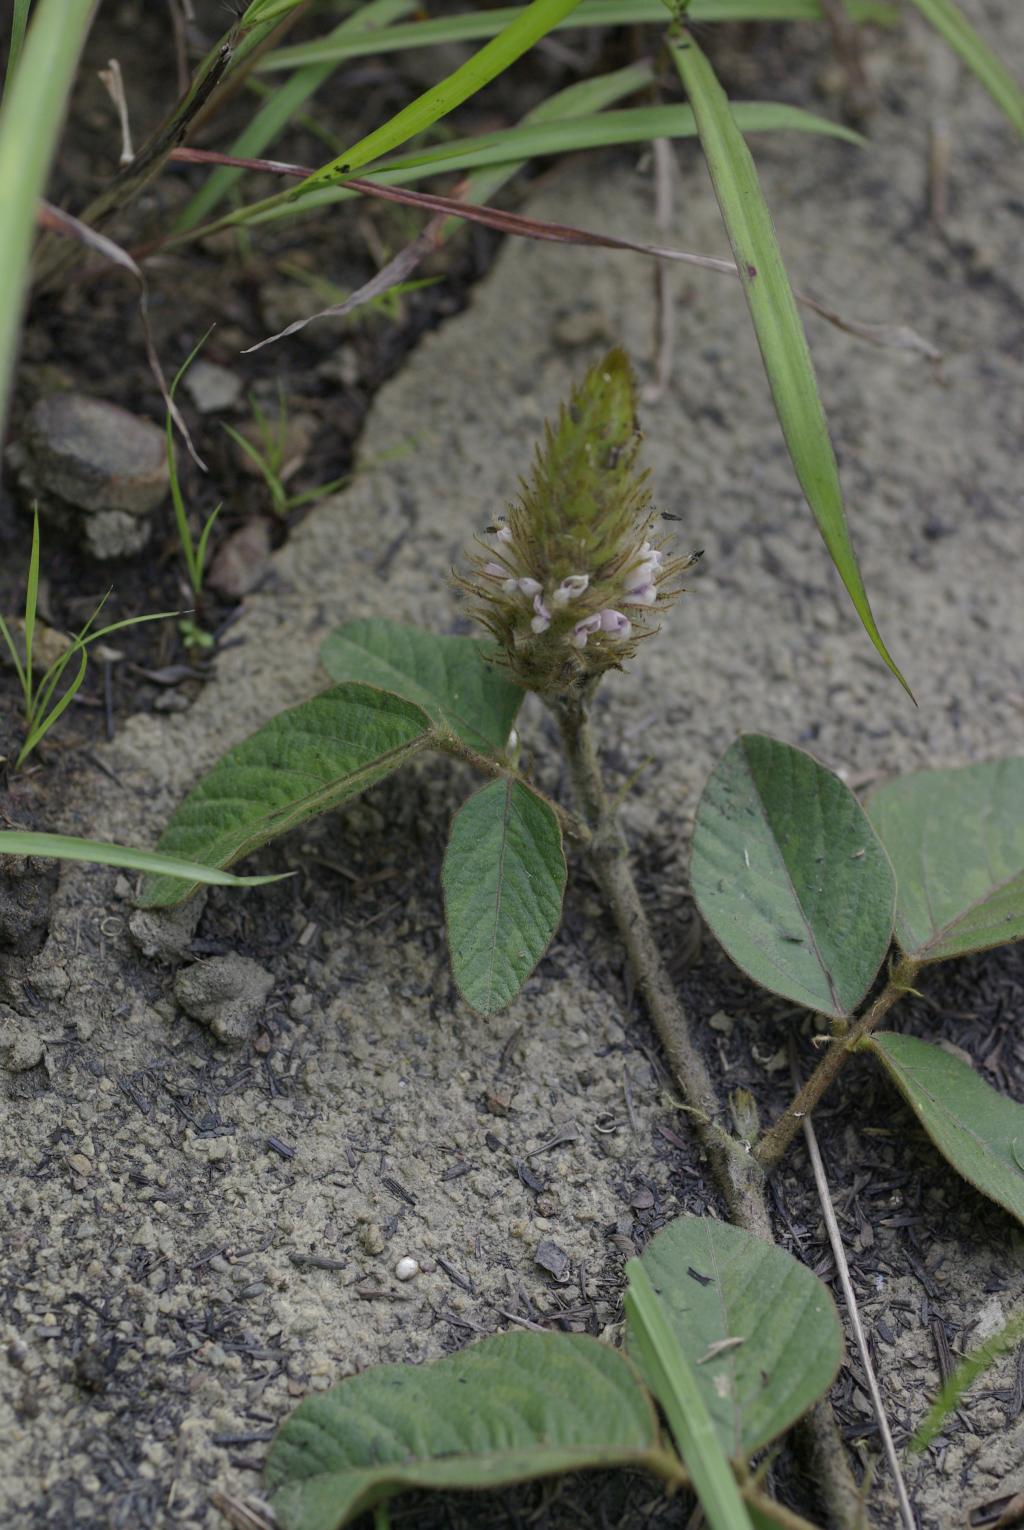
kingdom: Plantae
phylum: Tracheophyta
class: Magnoliopsida
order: Fabales
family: Fabaceae
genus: Uraria
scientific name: Uraria lagopodioides
